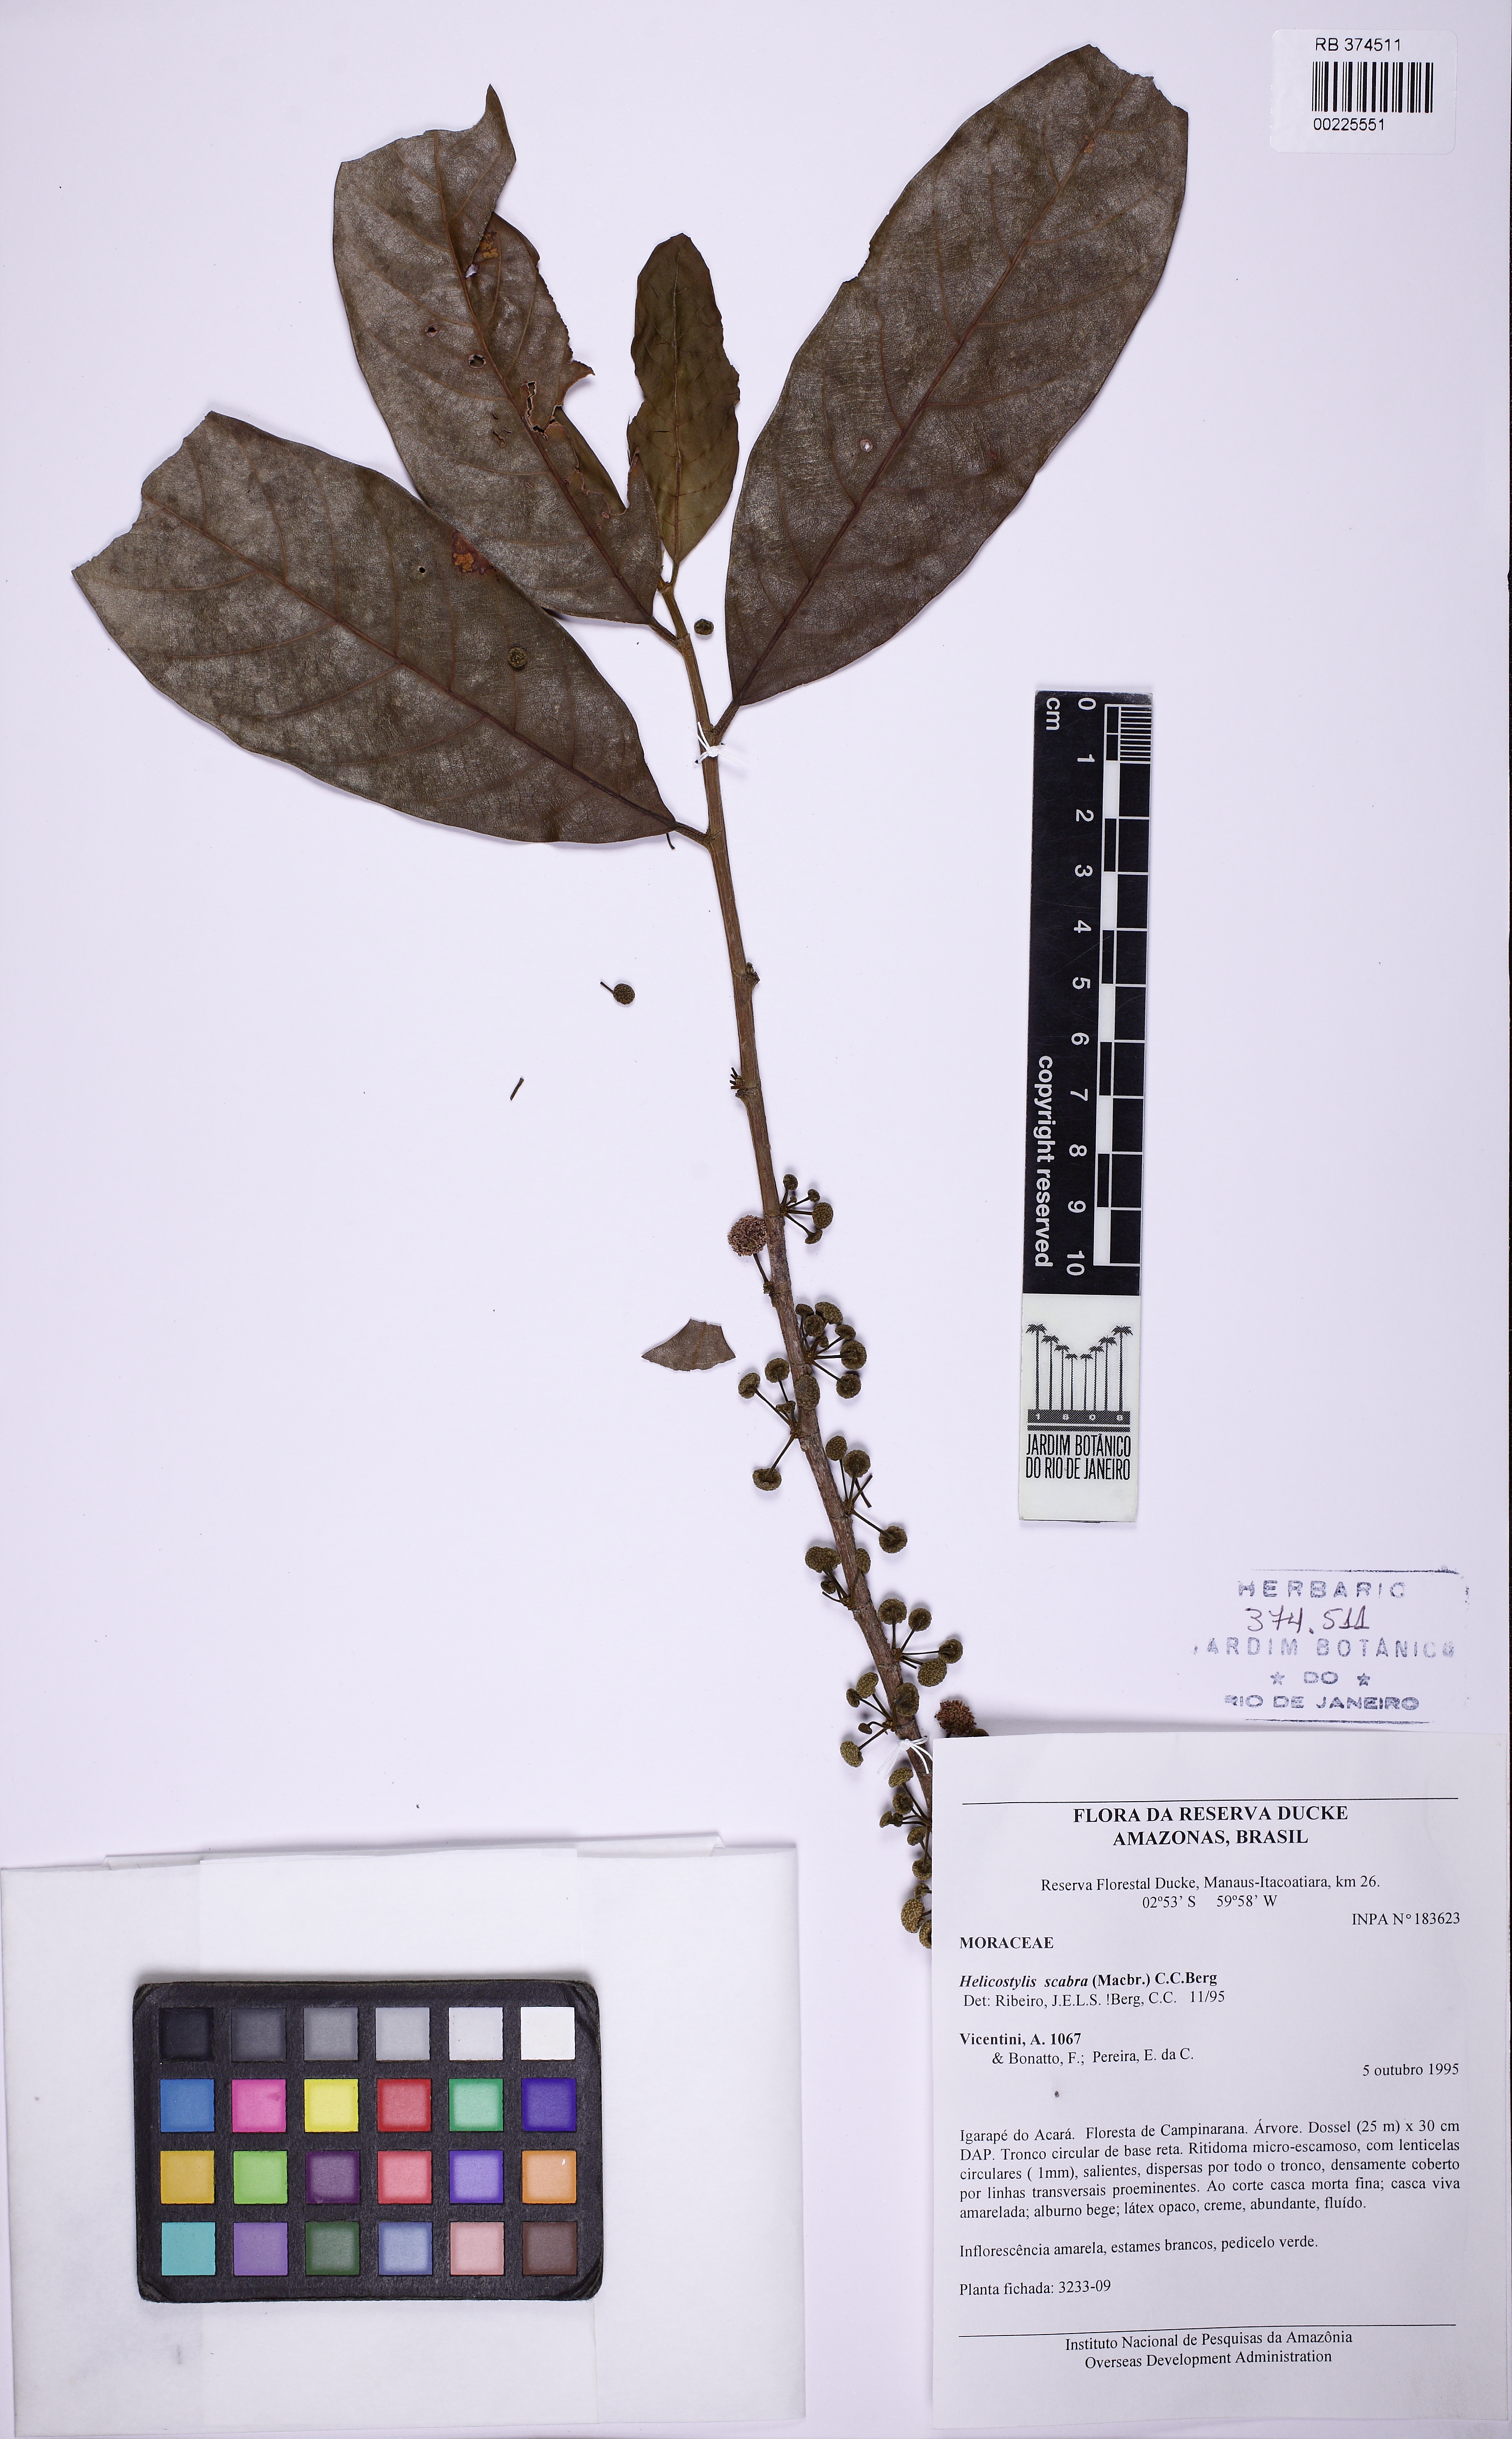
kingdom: Plantae
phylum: Tracheophyta
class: Magnoliopsida
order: Rosales
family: Moraceae
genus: Helicostylis
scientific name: Helicostylis scabra
